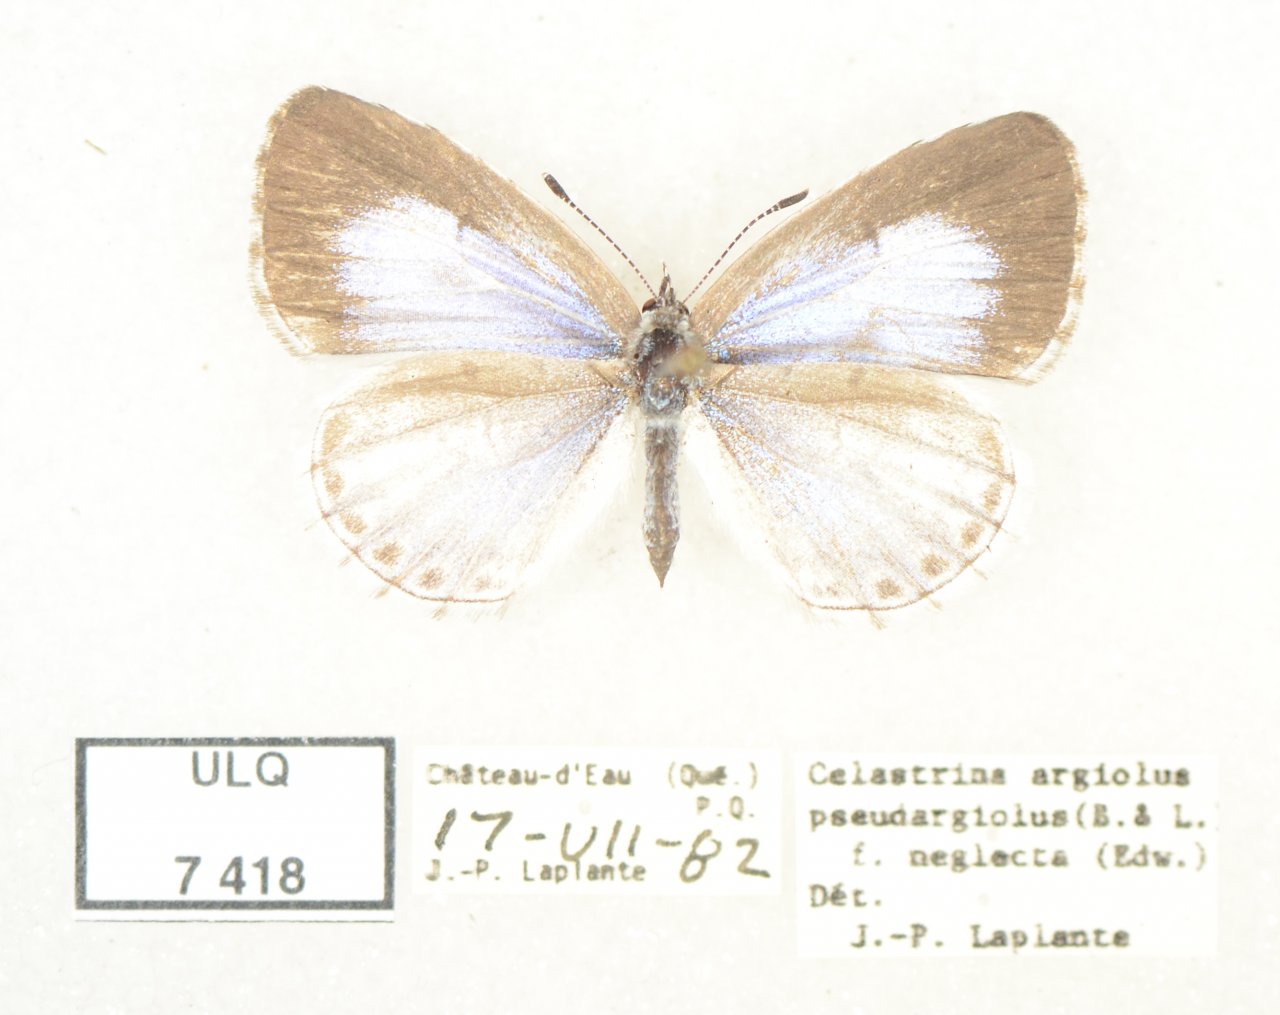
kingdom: Animalia
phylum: Arthropoda
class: Insecta
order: Lepidoptera
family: Lycaenidae
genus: Celastrina
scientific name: Celastrina lucia
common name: Northern Spring Azure
